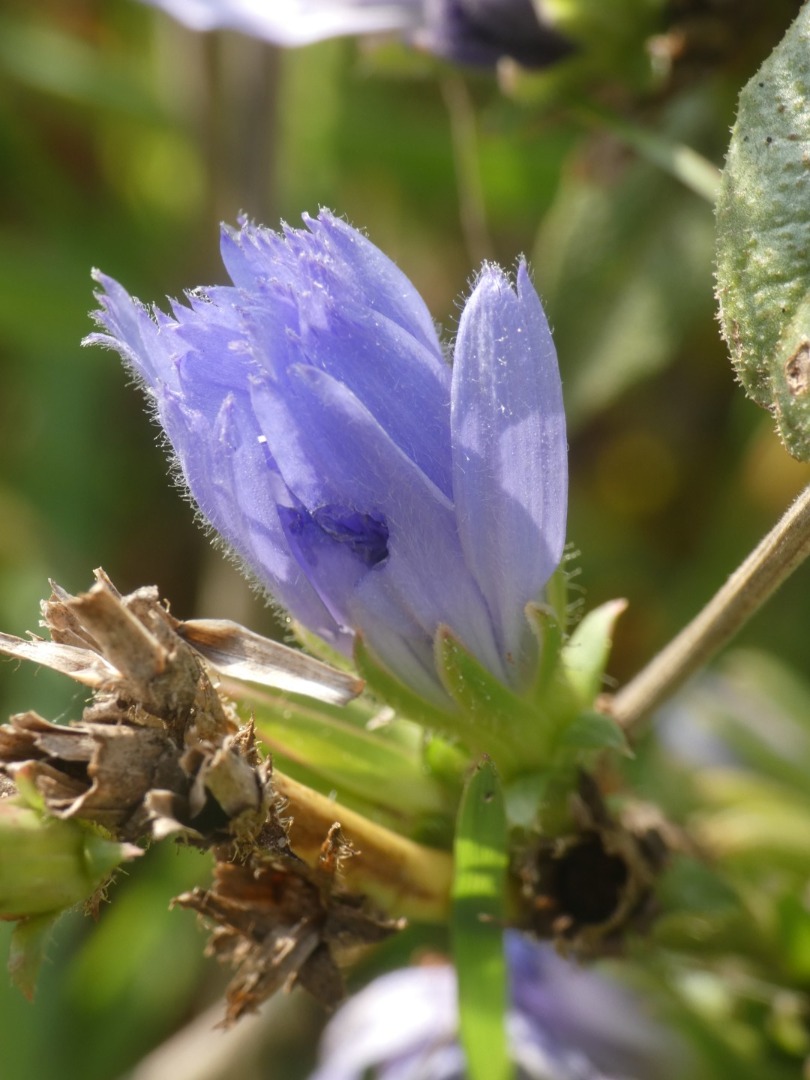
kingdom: Plantae
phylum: Tracheophyta
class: Magnoliopsida
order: Asterales
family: Asteraceae
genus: Cichorium
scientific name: Cichorium intybus
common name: Cikorie
